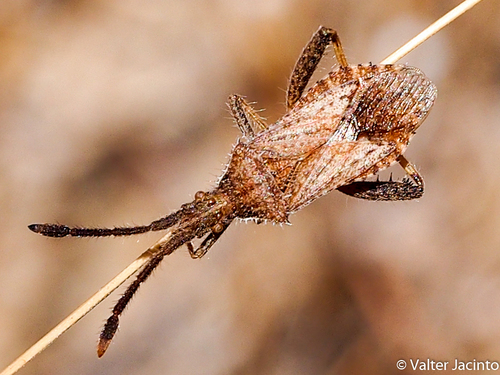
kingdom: Animalia
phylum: Arthropoda
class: Insecta
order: Hemiptera
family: Coreidae
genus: Coriomeris
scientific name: Coriomeris affinis
